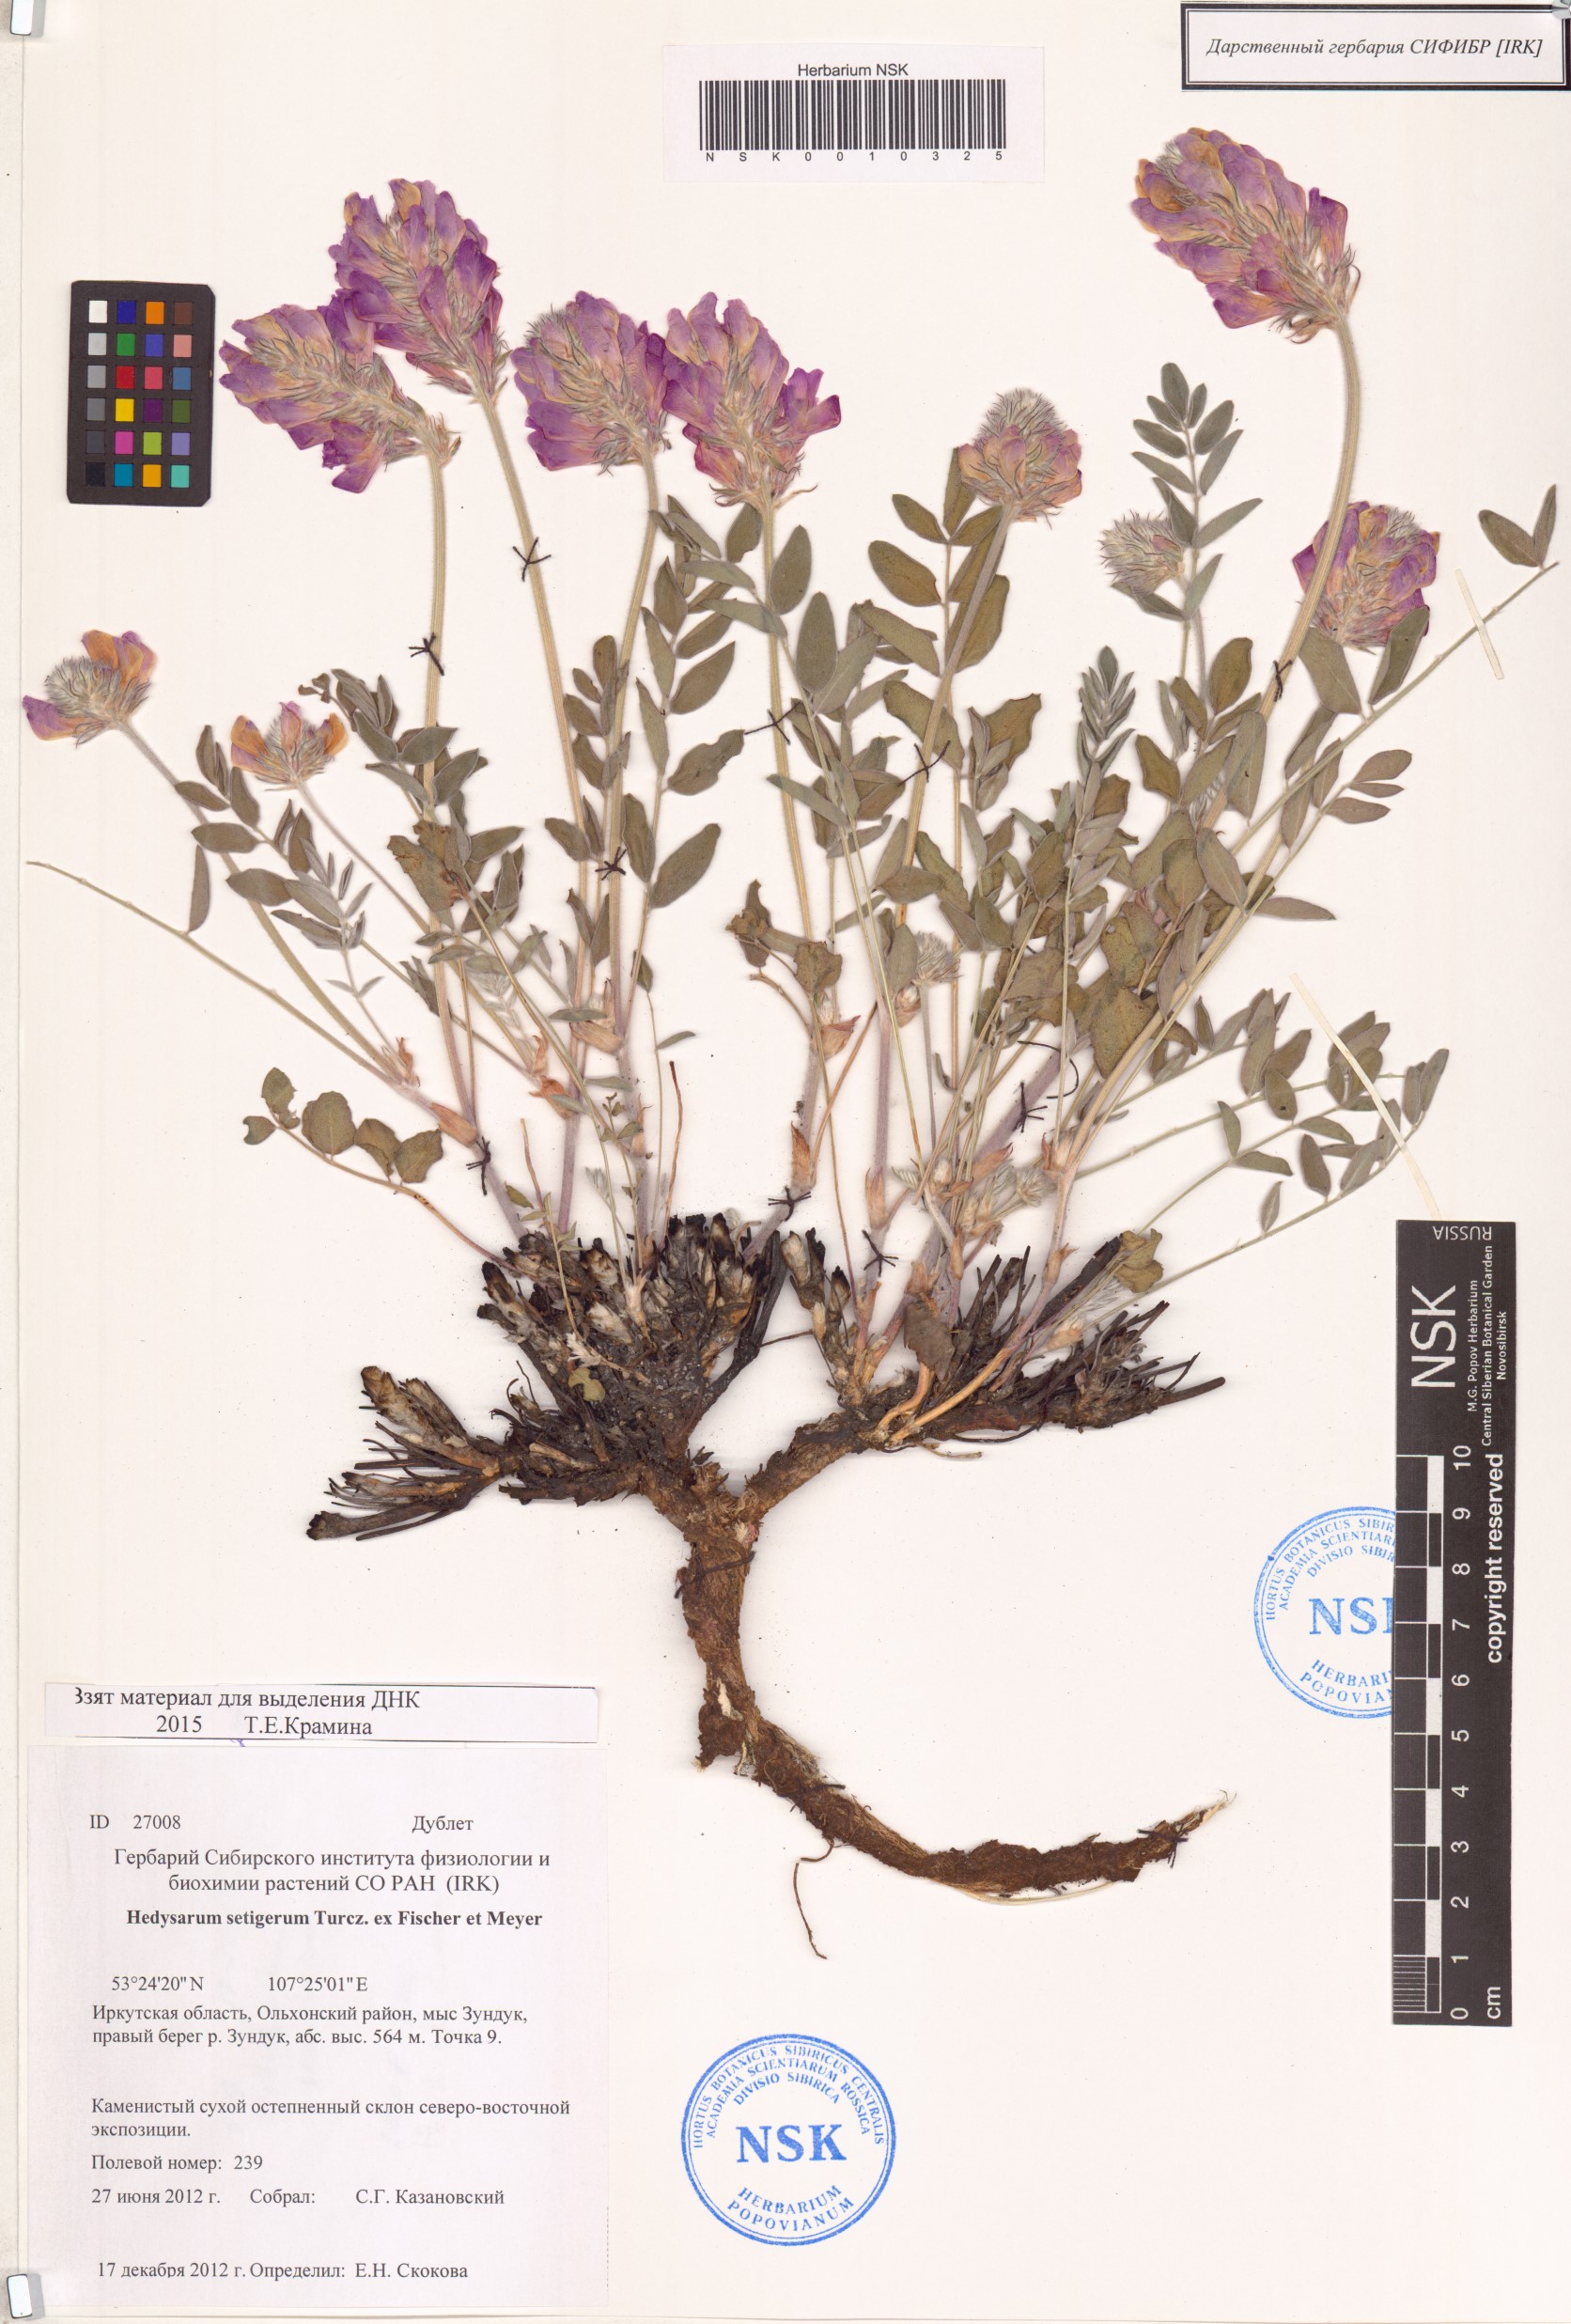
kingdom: Plantae
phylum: Tracheophyta
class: Magnoliopsida
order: Fabales
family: Fabaceae
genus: Hedysarum
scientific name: Hedysarum setigerum
